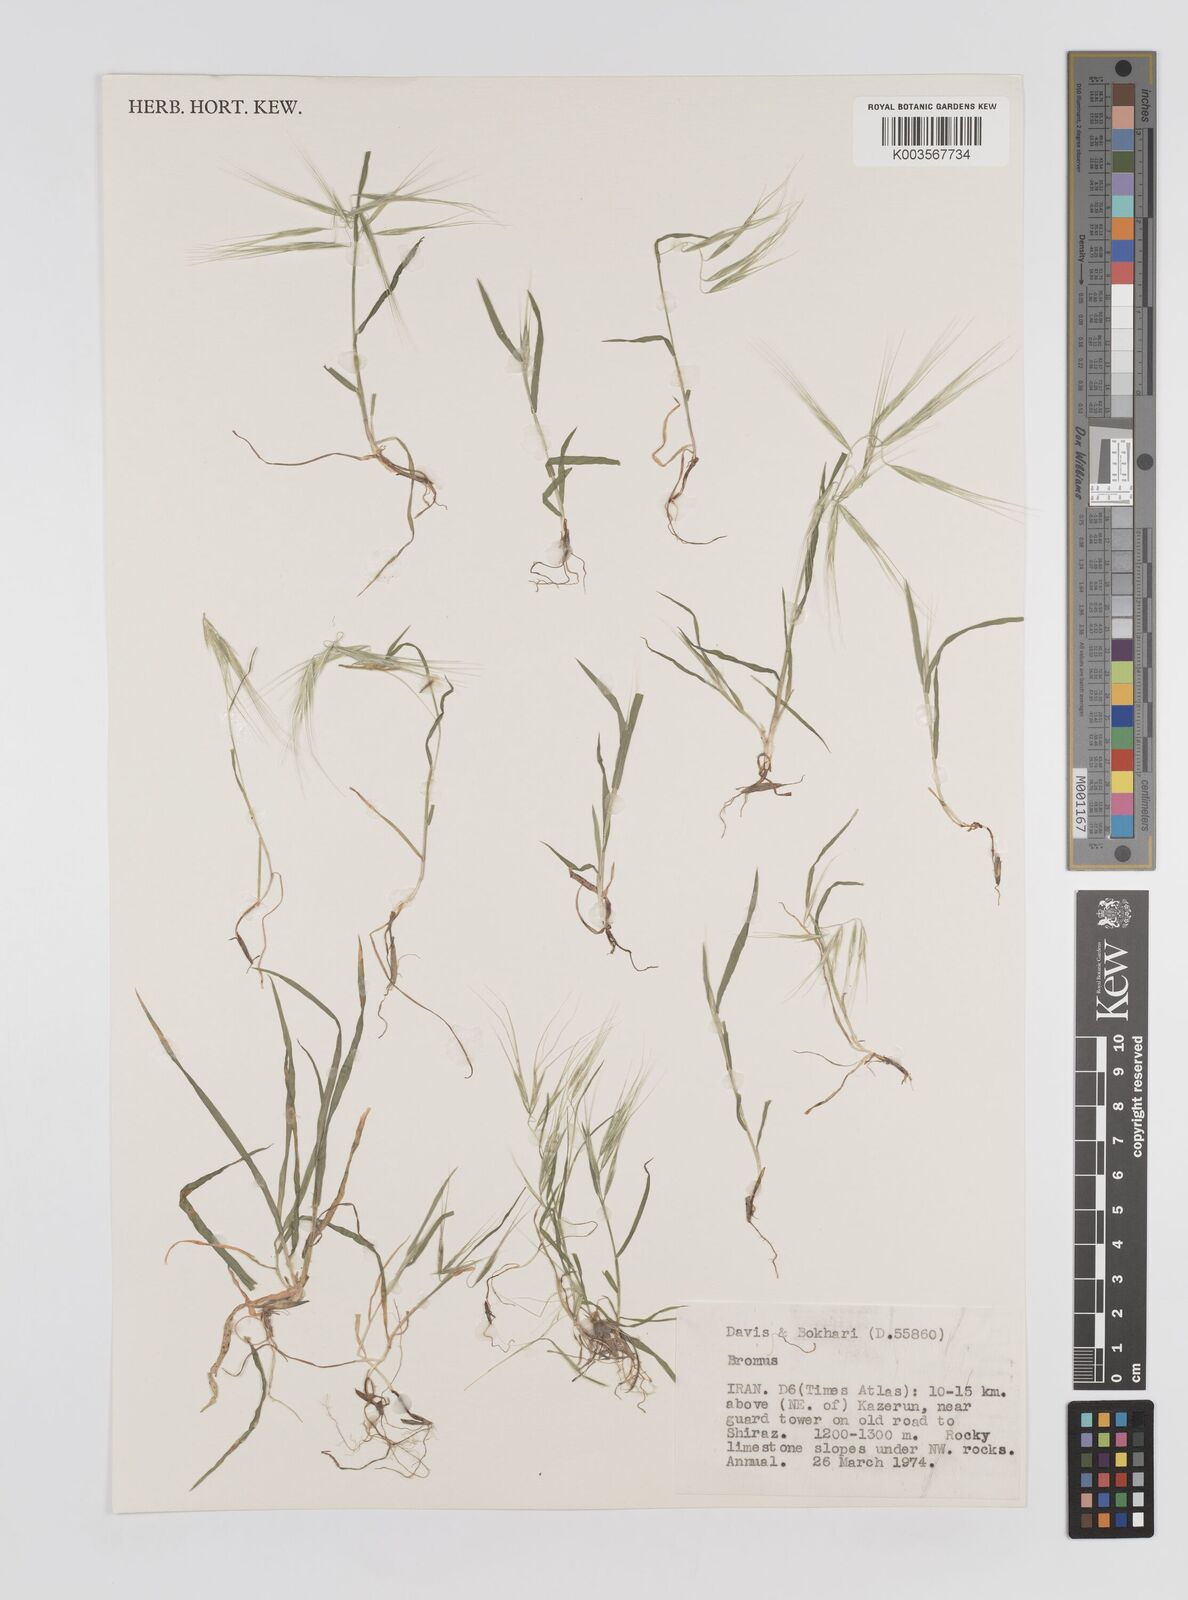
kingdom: Plantae
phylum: Tracheophyta
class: Liliopsida
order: Poales
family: Poaceae
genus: Bromus
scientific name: Bromus
